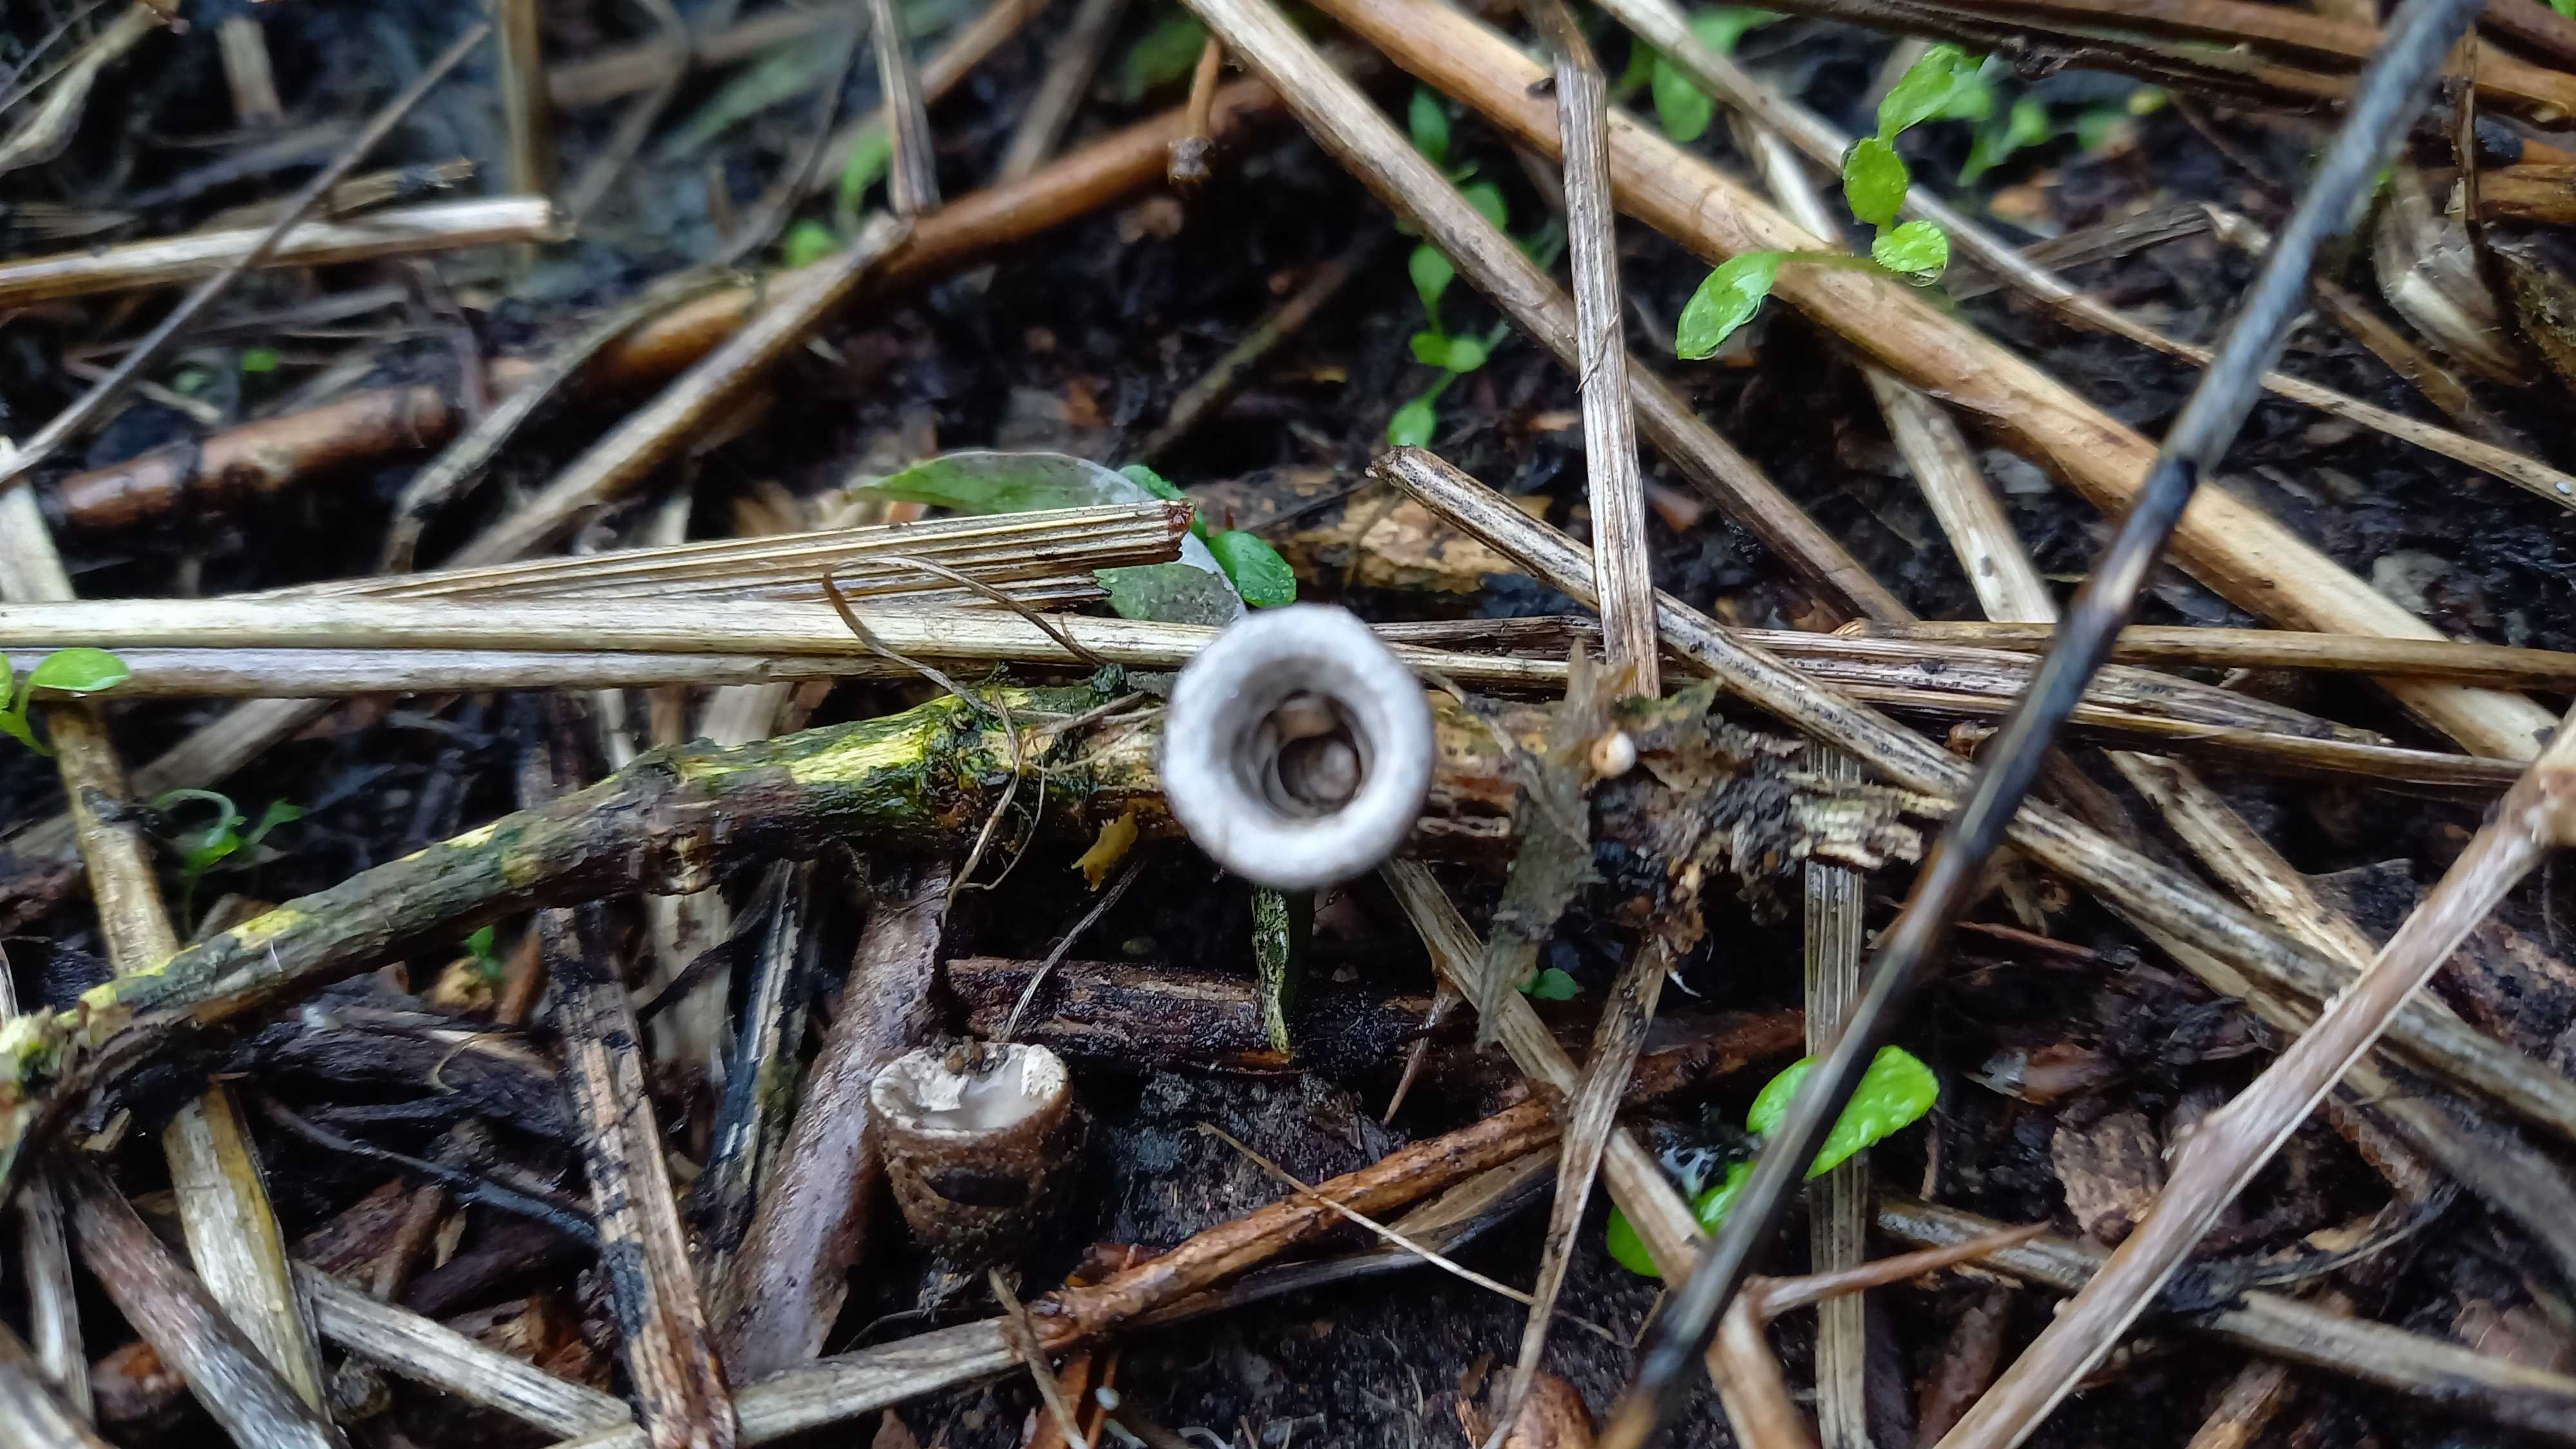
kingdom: Fungi
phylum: Basidiomycota
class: Agaricomycetes
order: Agaricales
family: Agaricaceae
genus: Cyathus
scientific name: Cyathus olla
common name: klokke-redesvamp
